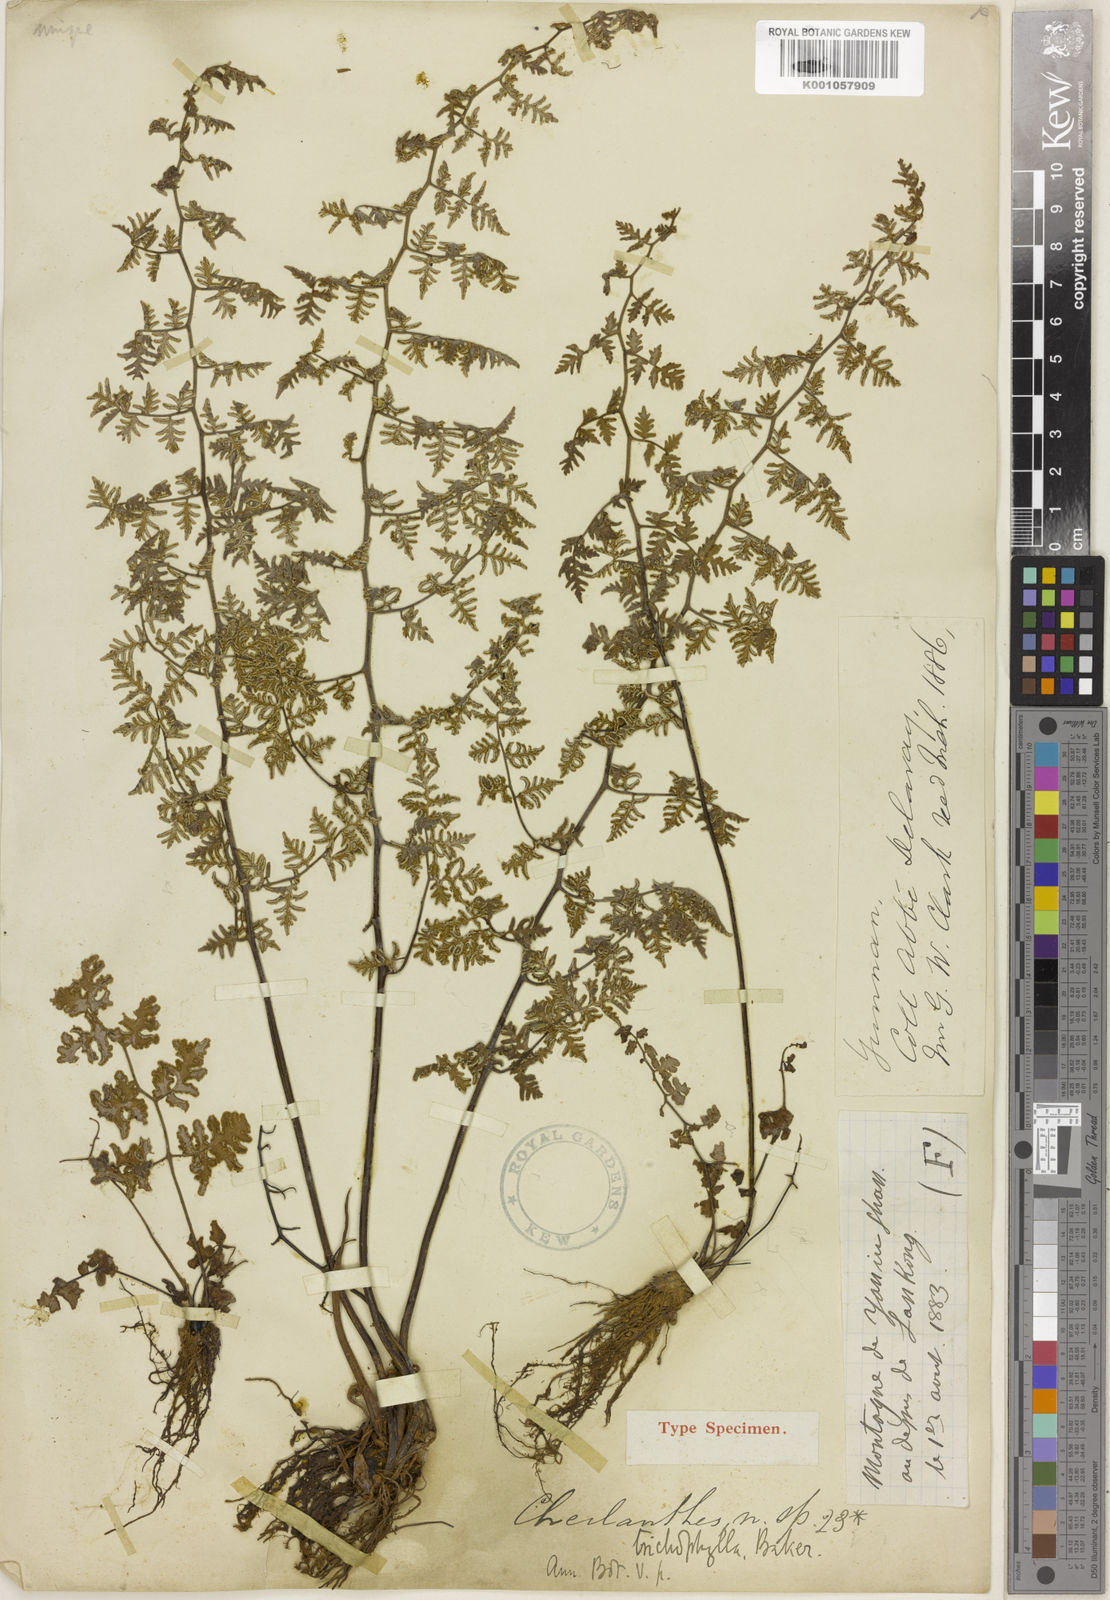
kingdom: Plantae
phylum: Tracheophyta
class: Polypodiopsida
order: Polypodiales
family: Pteridaceae
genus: Oeosporangium
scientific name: Oeosporangium trichophyllum
